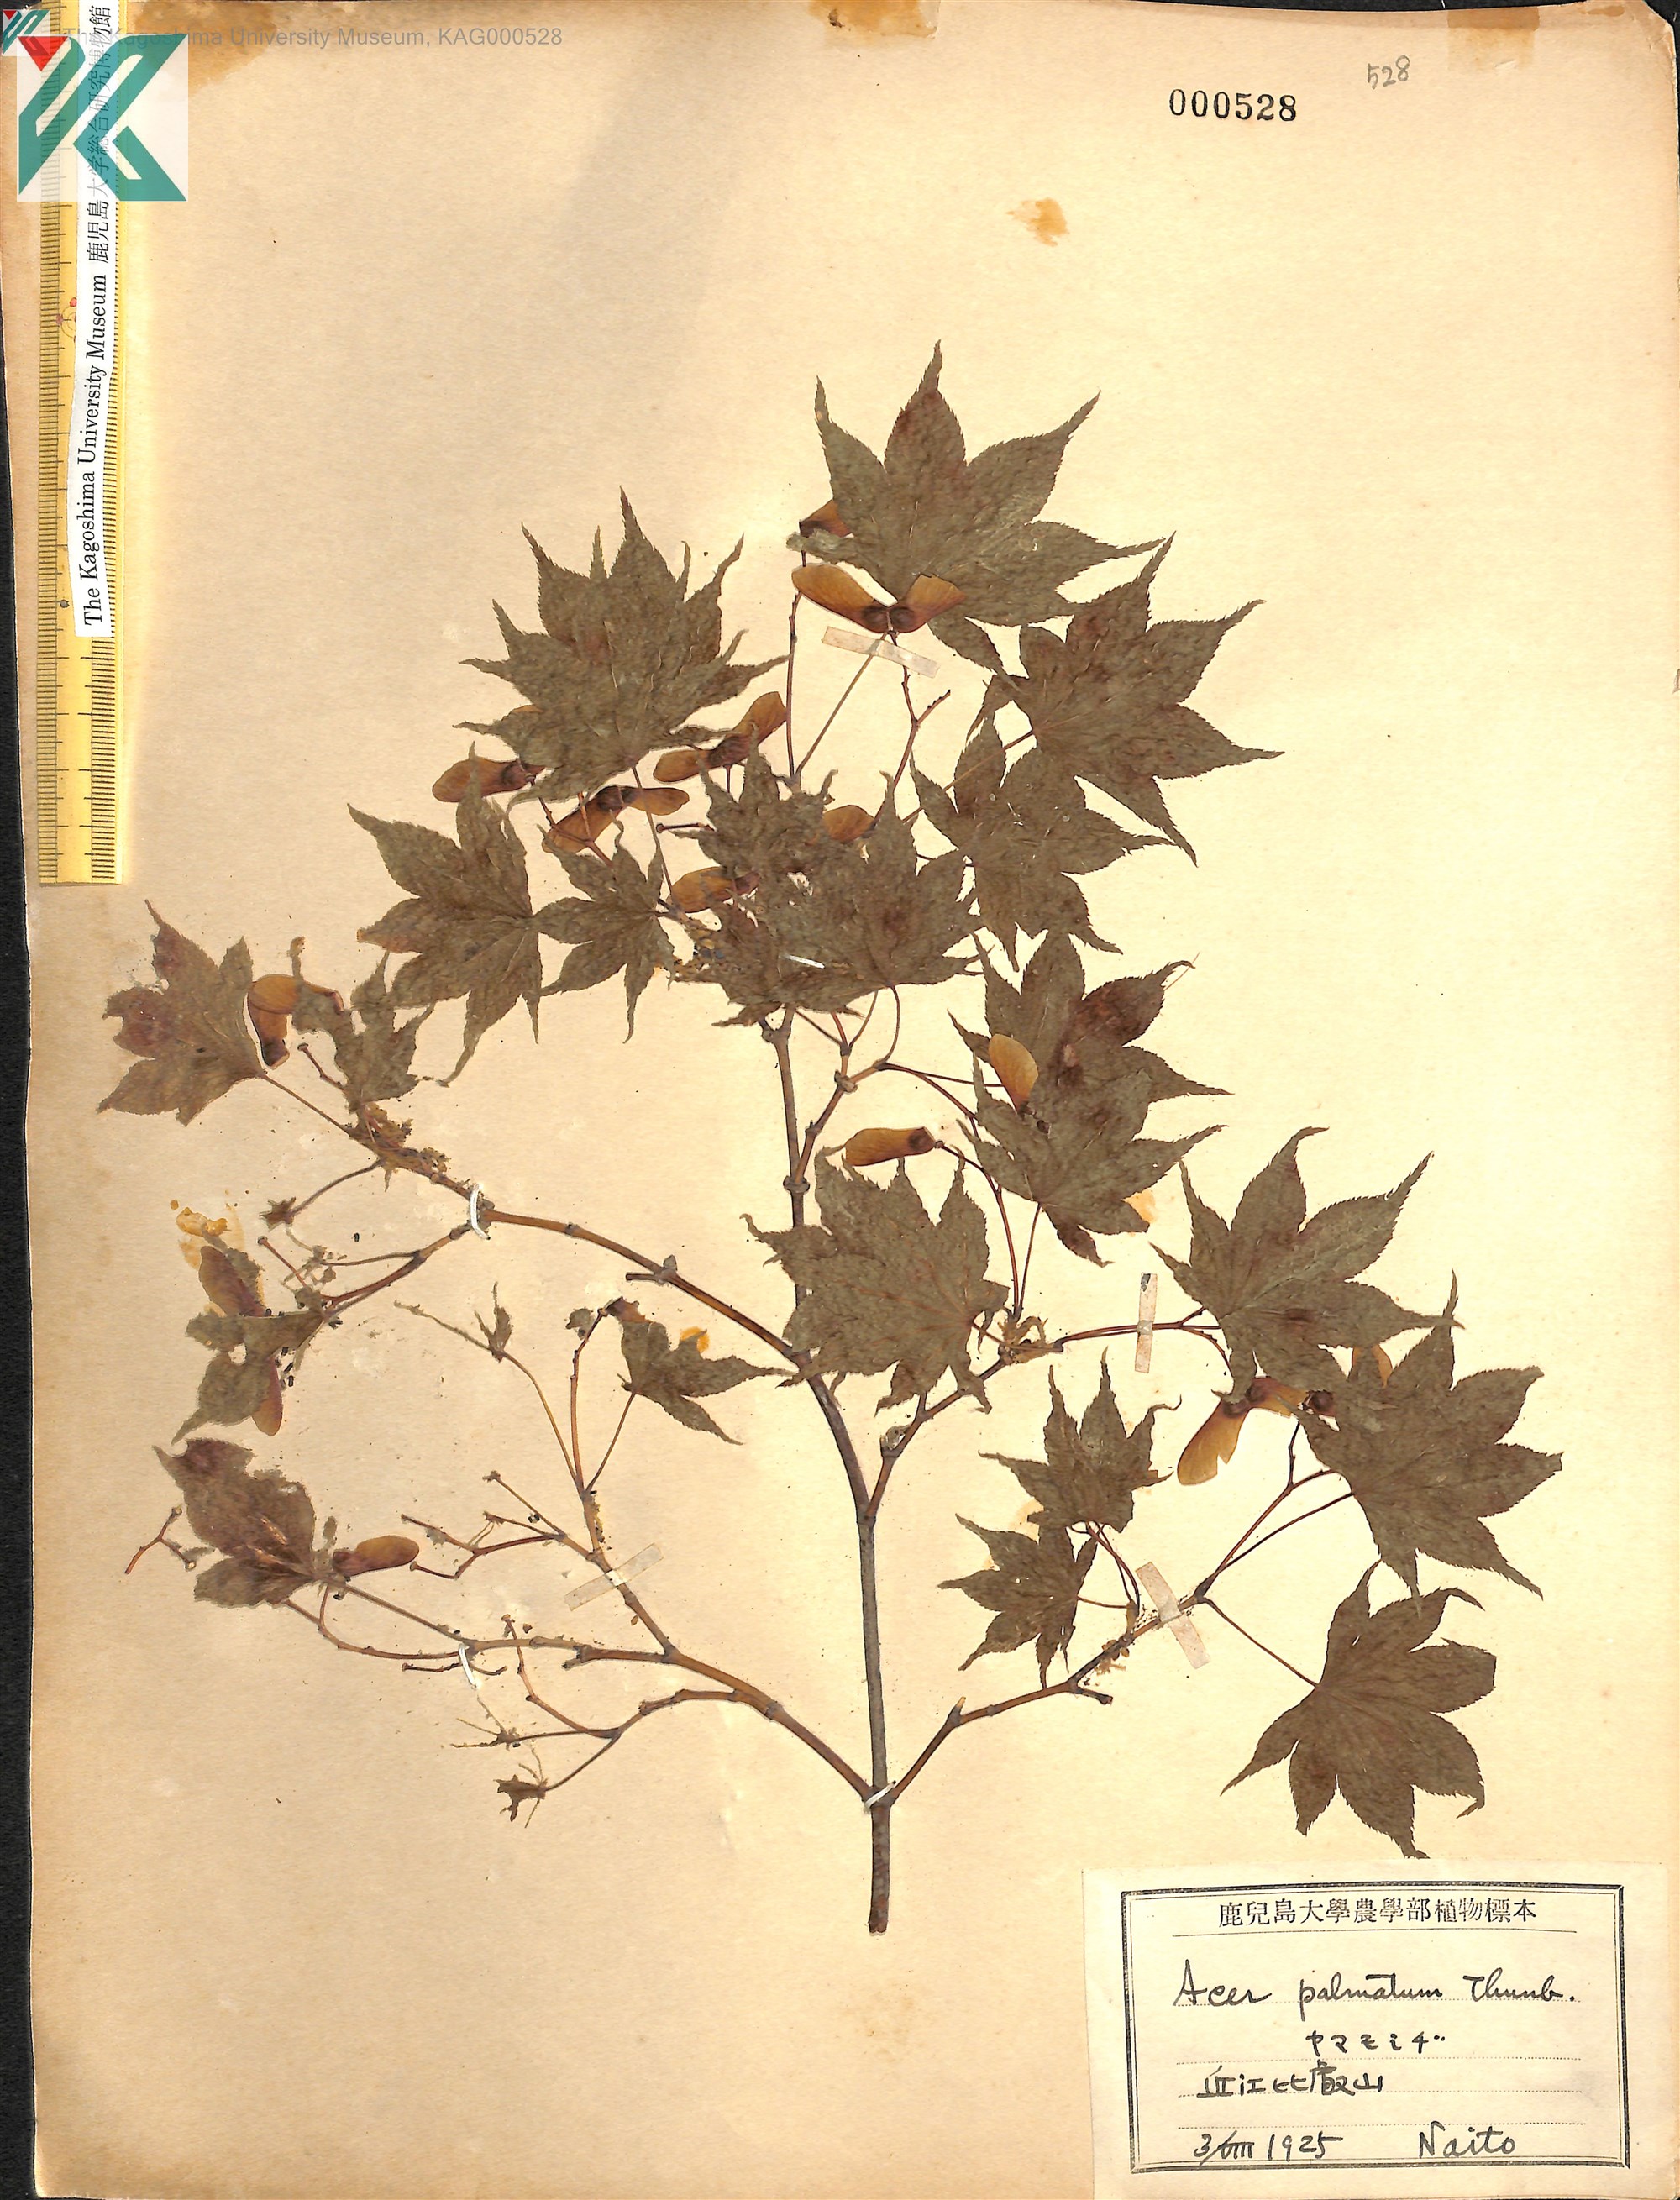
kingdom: Plantae
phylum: Tracheophyta
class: Magnoliopsida
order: Sapindales
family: Sapindaceae
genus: Acer
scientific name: Acer palmatum
